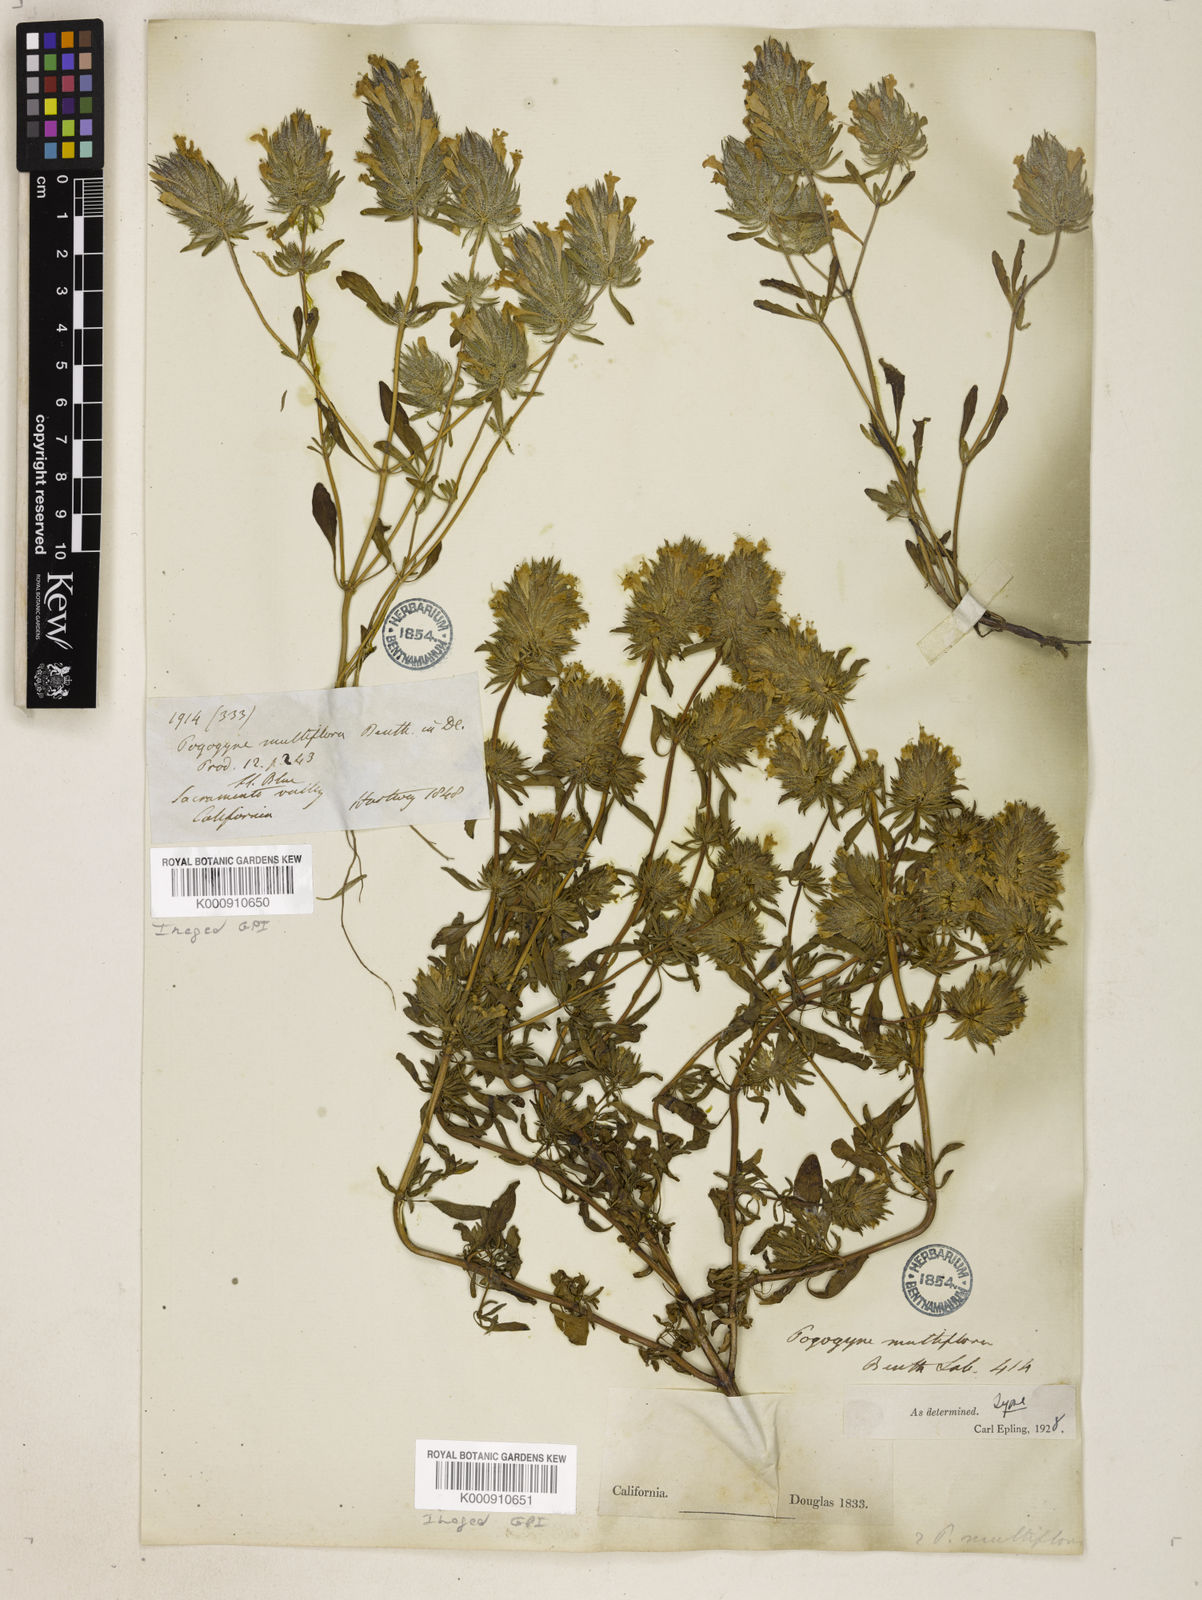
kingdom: Plantae
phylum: Tracheophyta
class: Magnoliopsida
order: Lamiales
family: Lamiaceae
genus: Pogogyne
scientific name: Pogogyne douglasii
